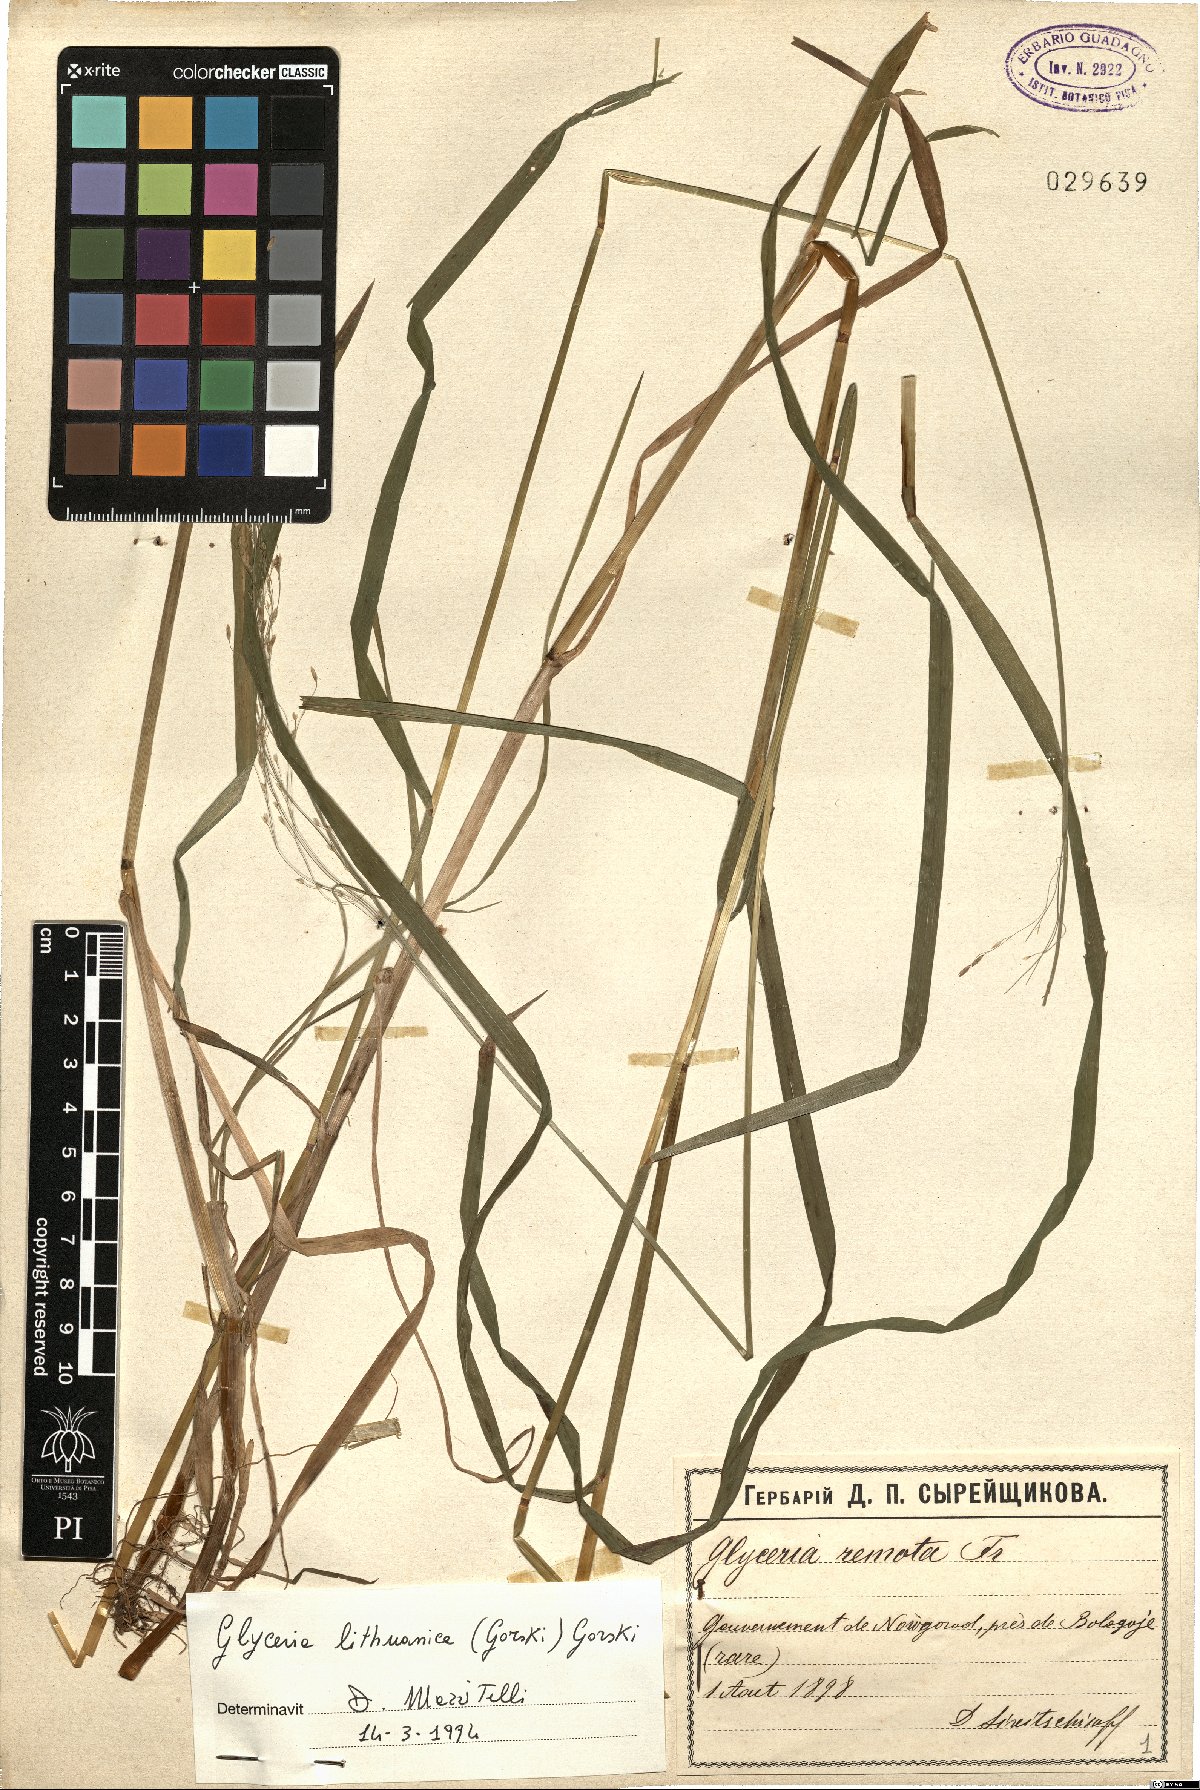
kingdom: Plantae
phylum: Tracheophyta
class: Liliopsida
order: Poales
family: Poaceae
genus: Glyceria
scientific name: Glyceria lithuanica
